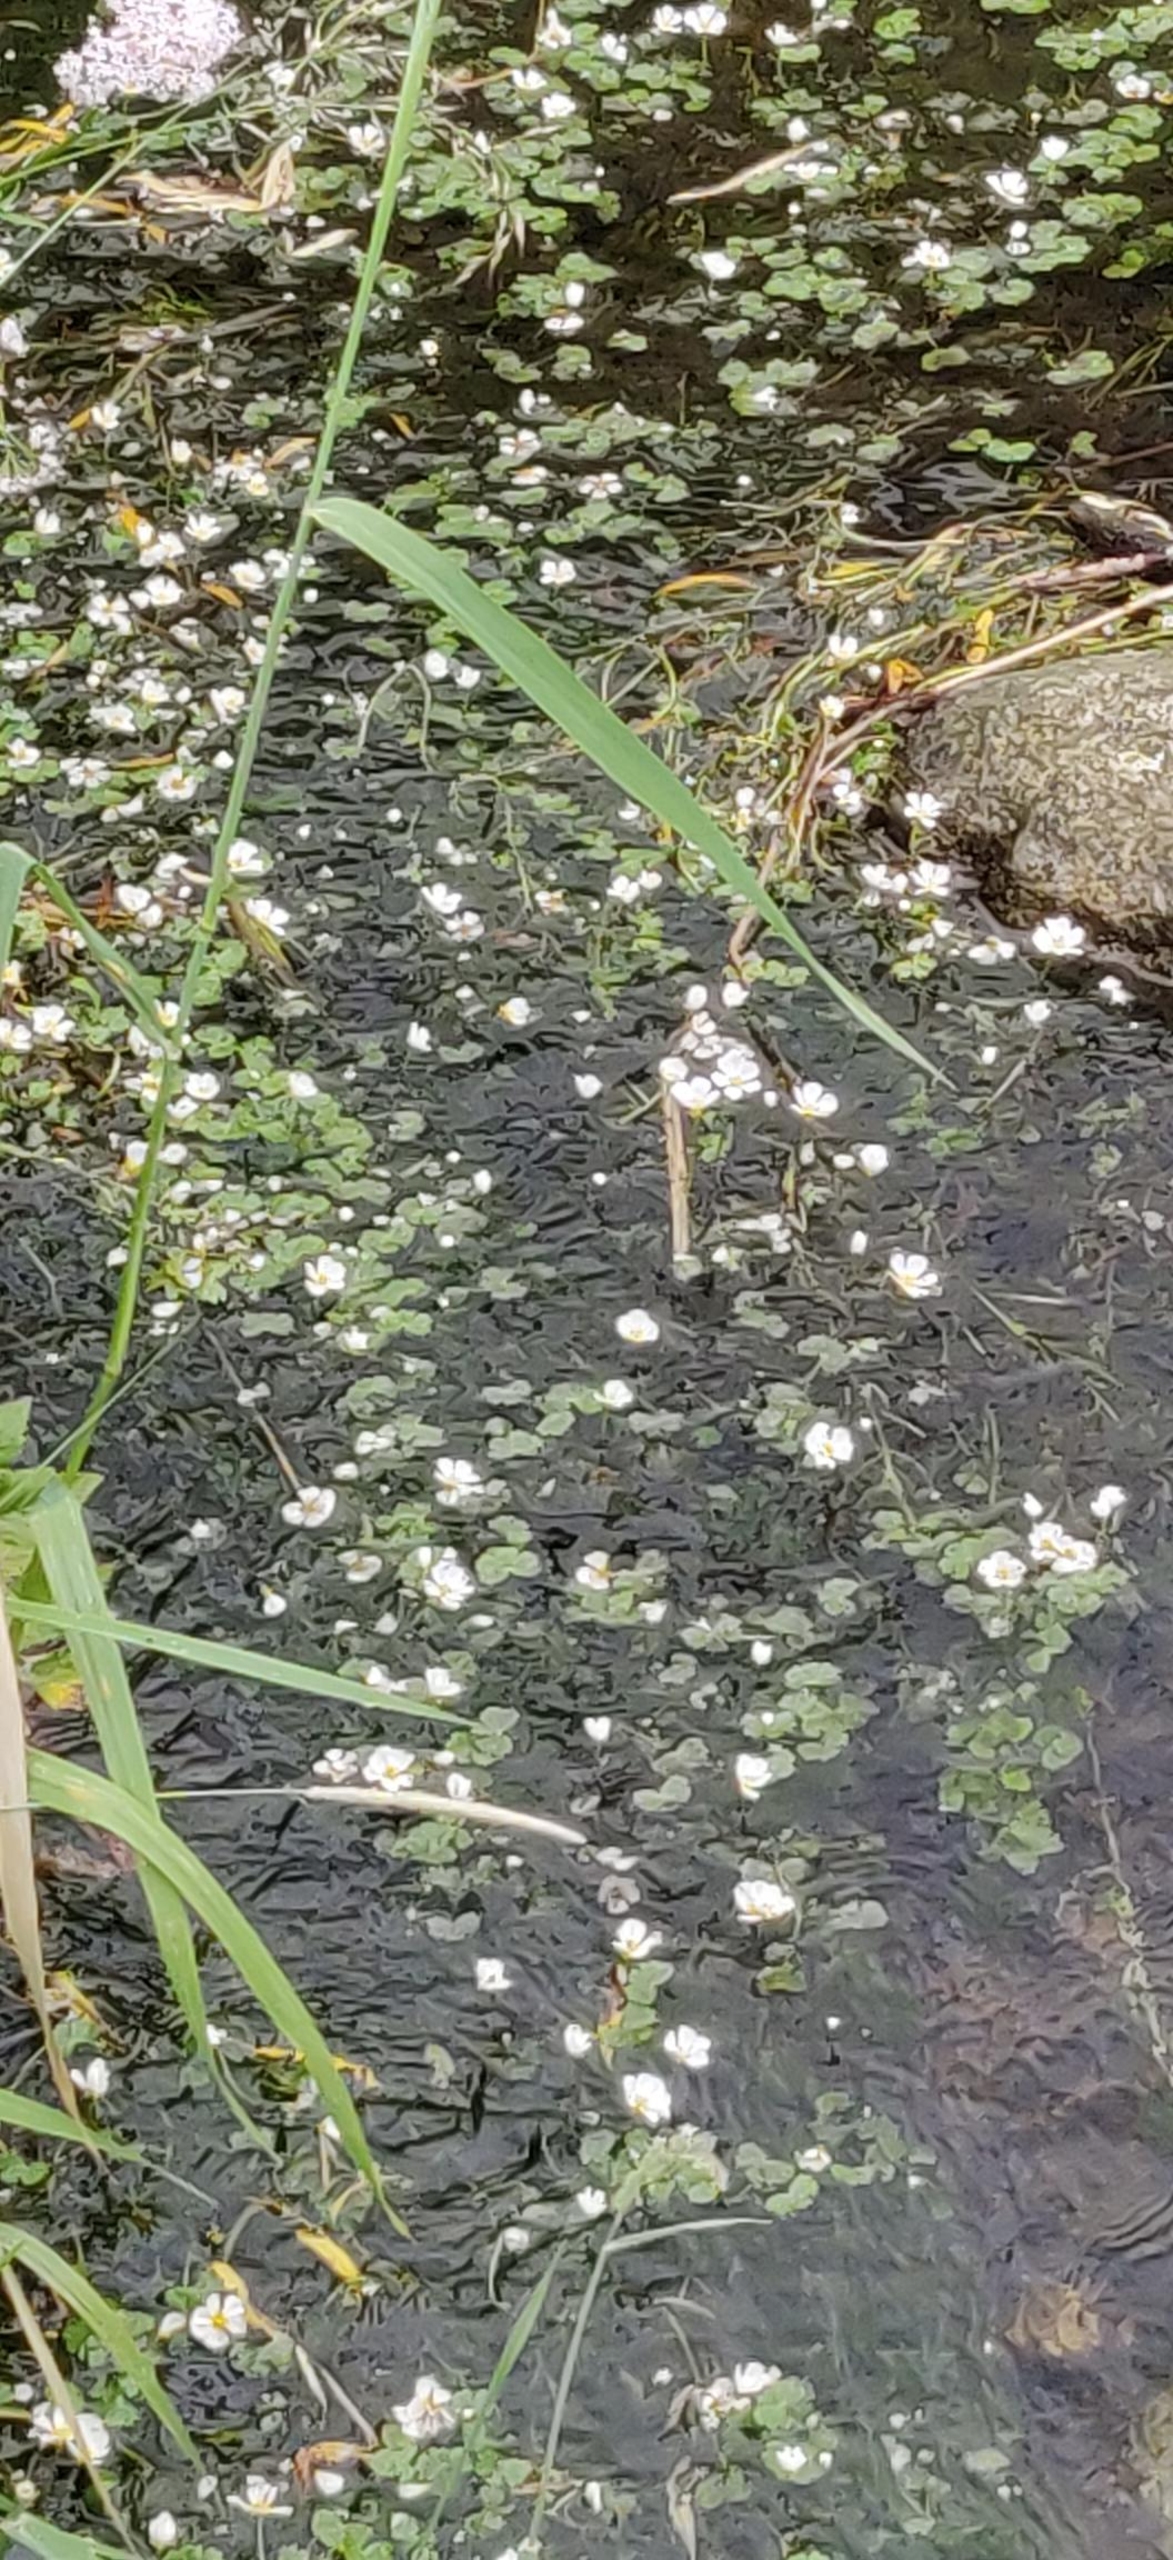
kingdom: Plantae
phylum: Tracheophyta
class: Magnoliopsida
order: Ranunculales
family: Ranunculaceae
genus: Ranunculus
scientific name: Ranunculus peltatus
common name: Storblomstret vandranunkel
